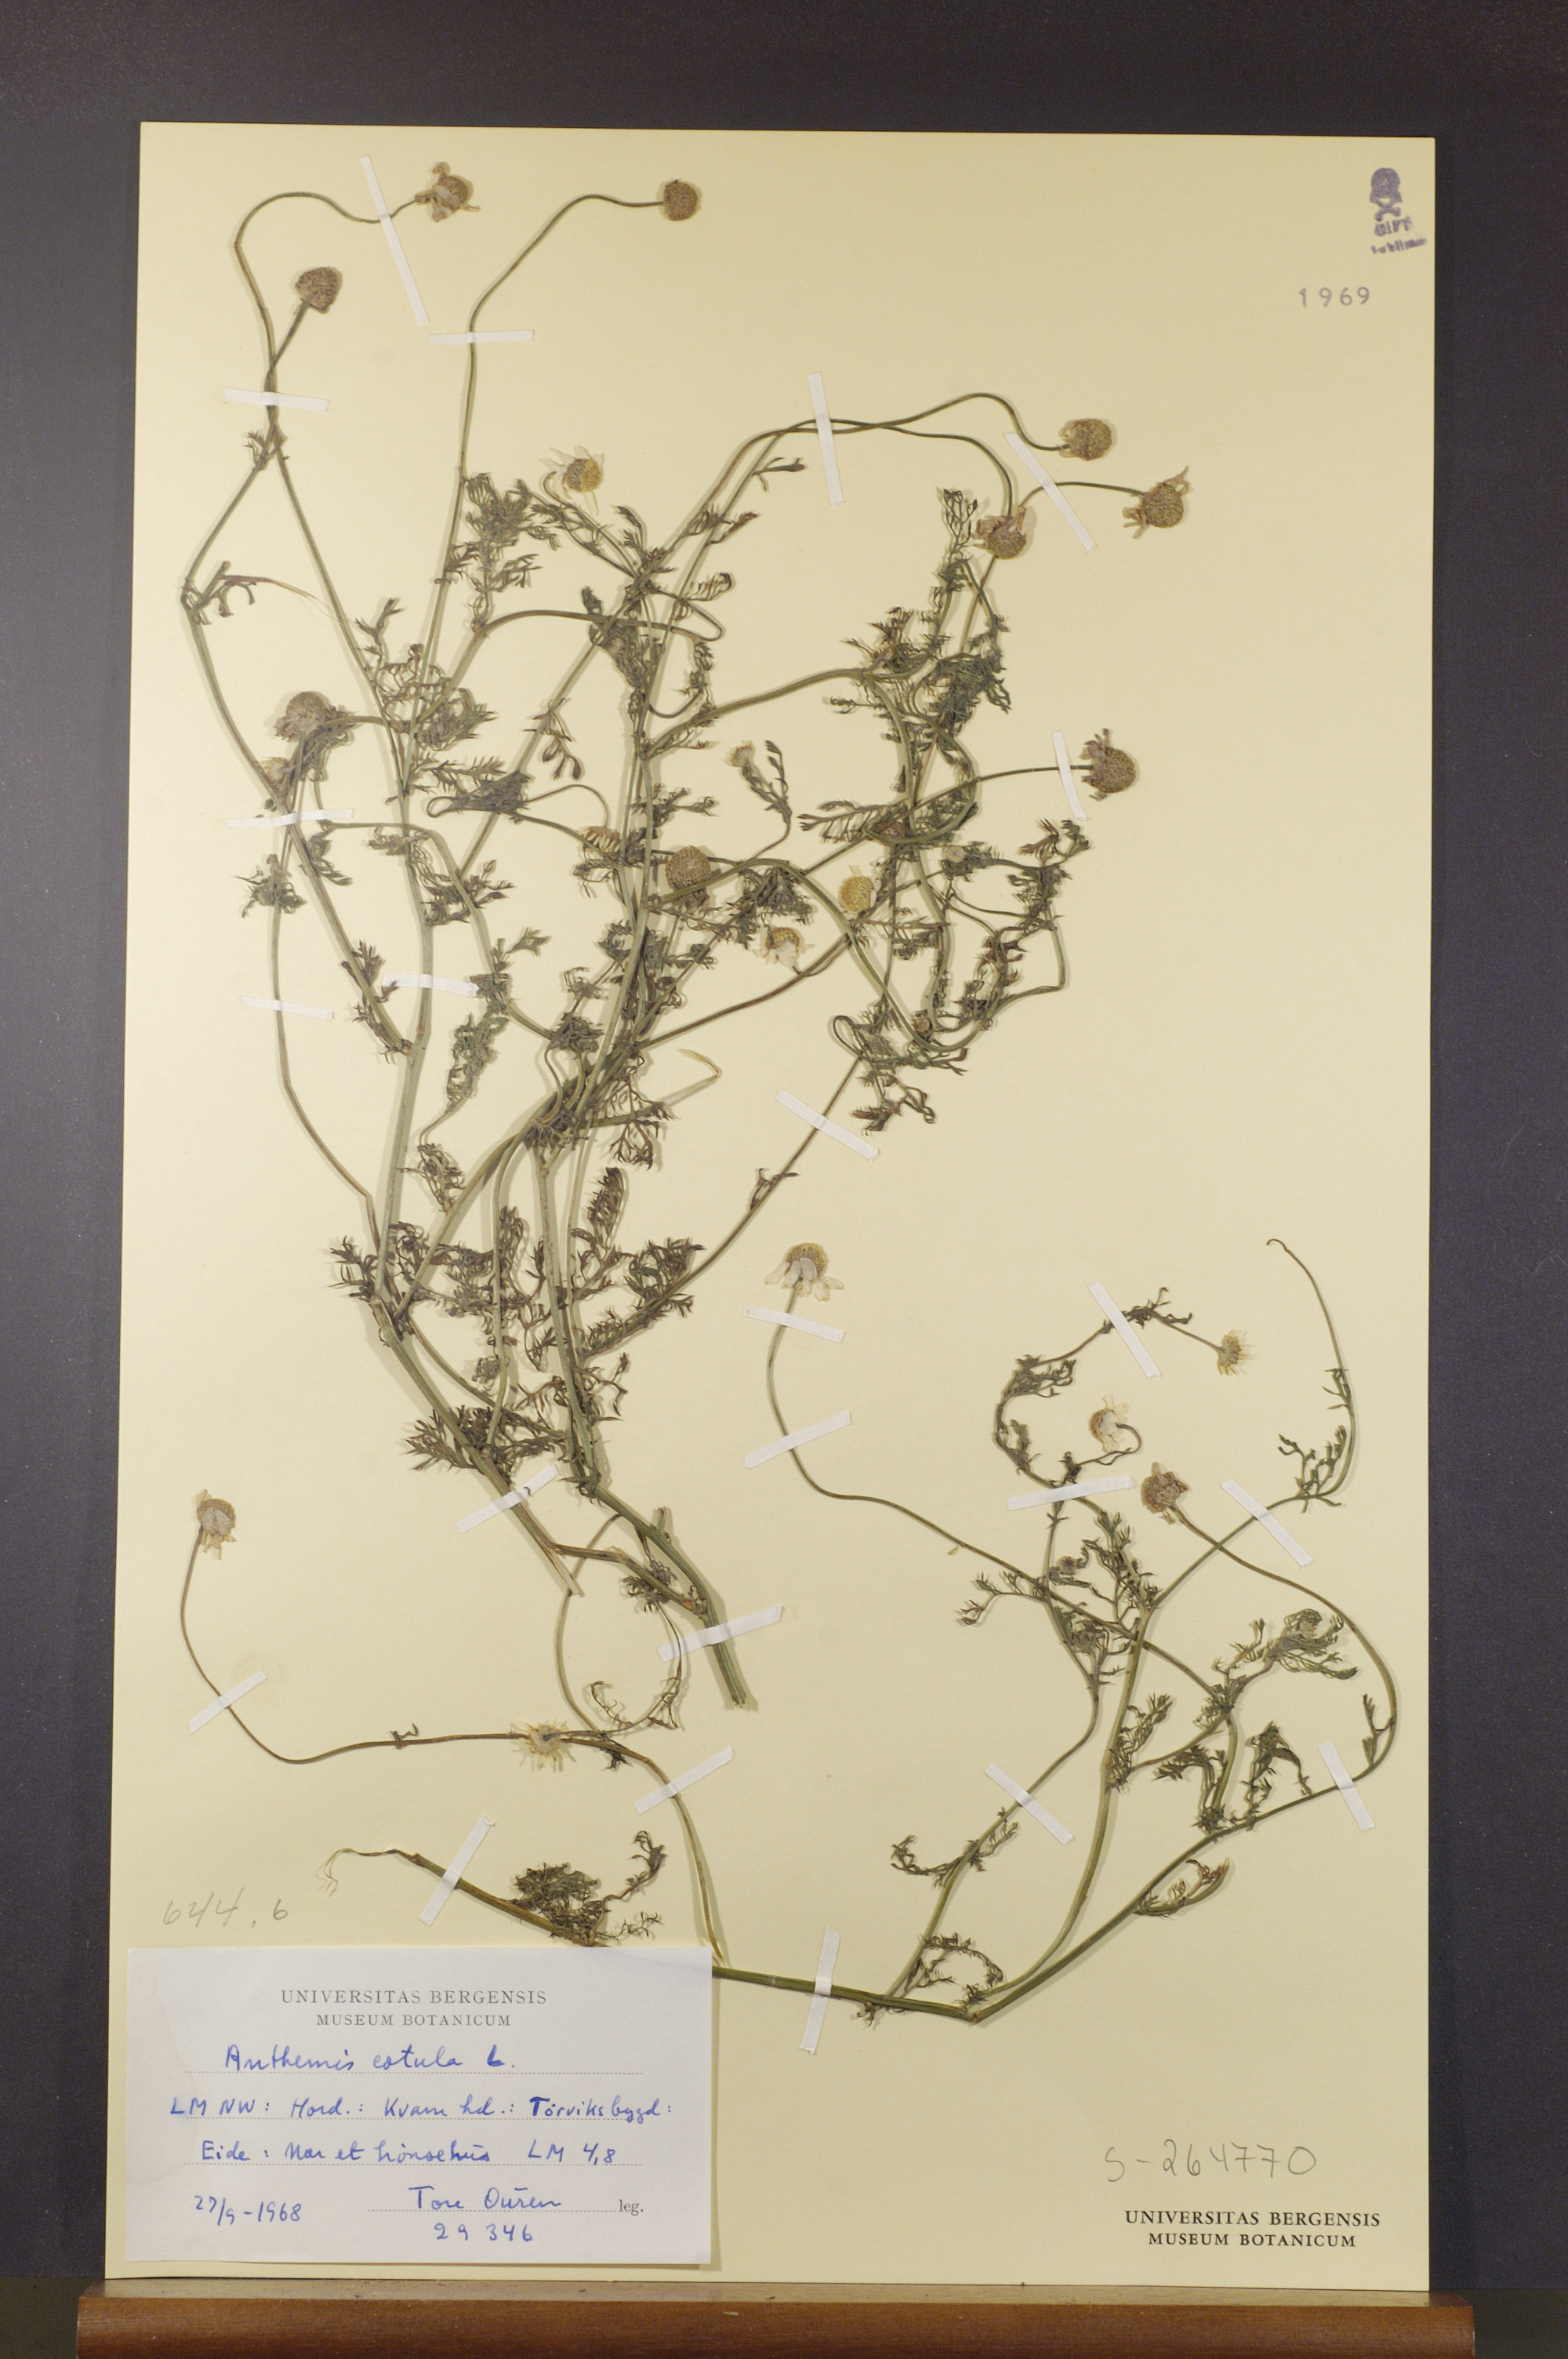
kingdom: Plantae
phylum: Tracheophyta
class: Magnoliopsida
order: Asterales
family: Asteraceae
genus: Anthemis
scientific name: Anthemis cotula
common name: Stinking chamomile
